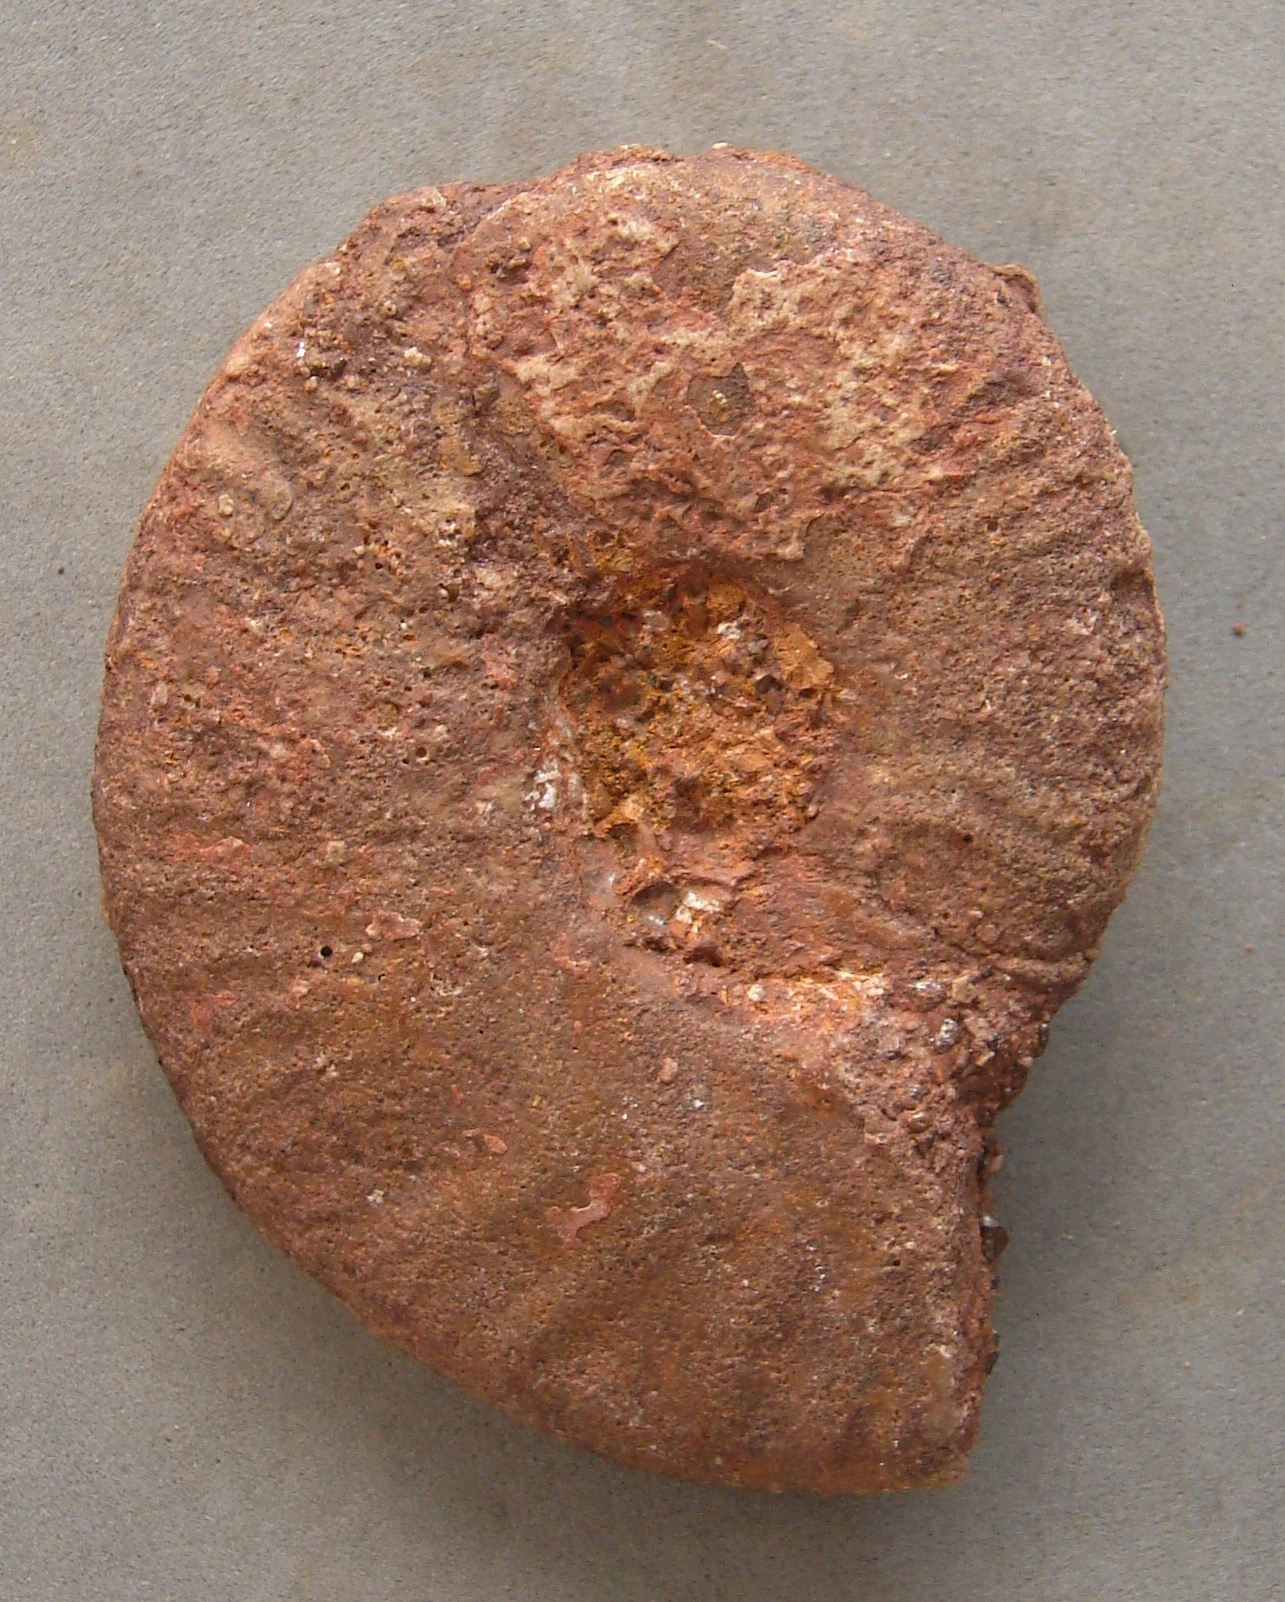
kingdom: Animalia
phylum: Mollusca
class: Cephalopoda
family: Graphoceratidae
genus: Staufenia
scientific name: Staufenia sehndensis
